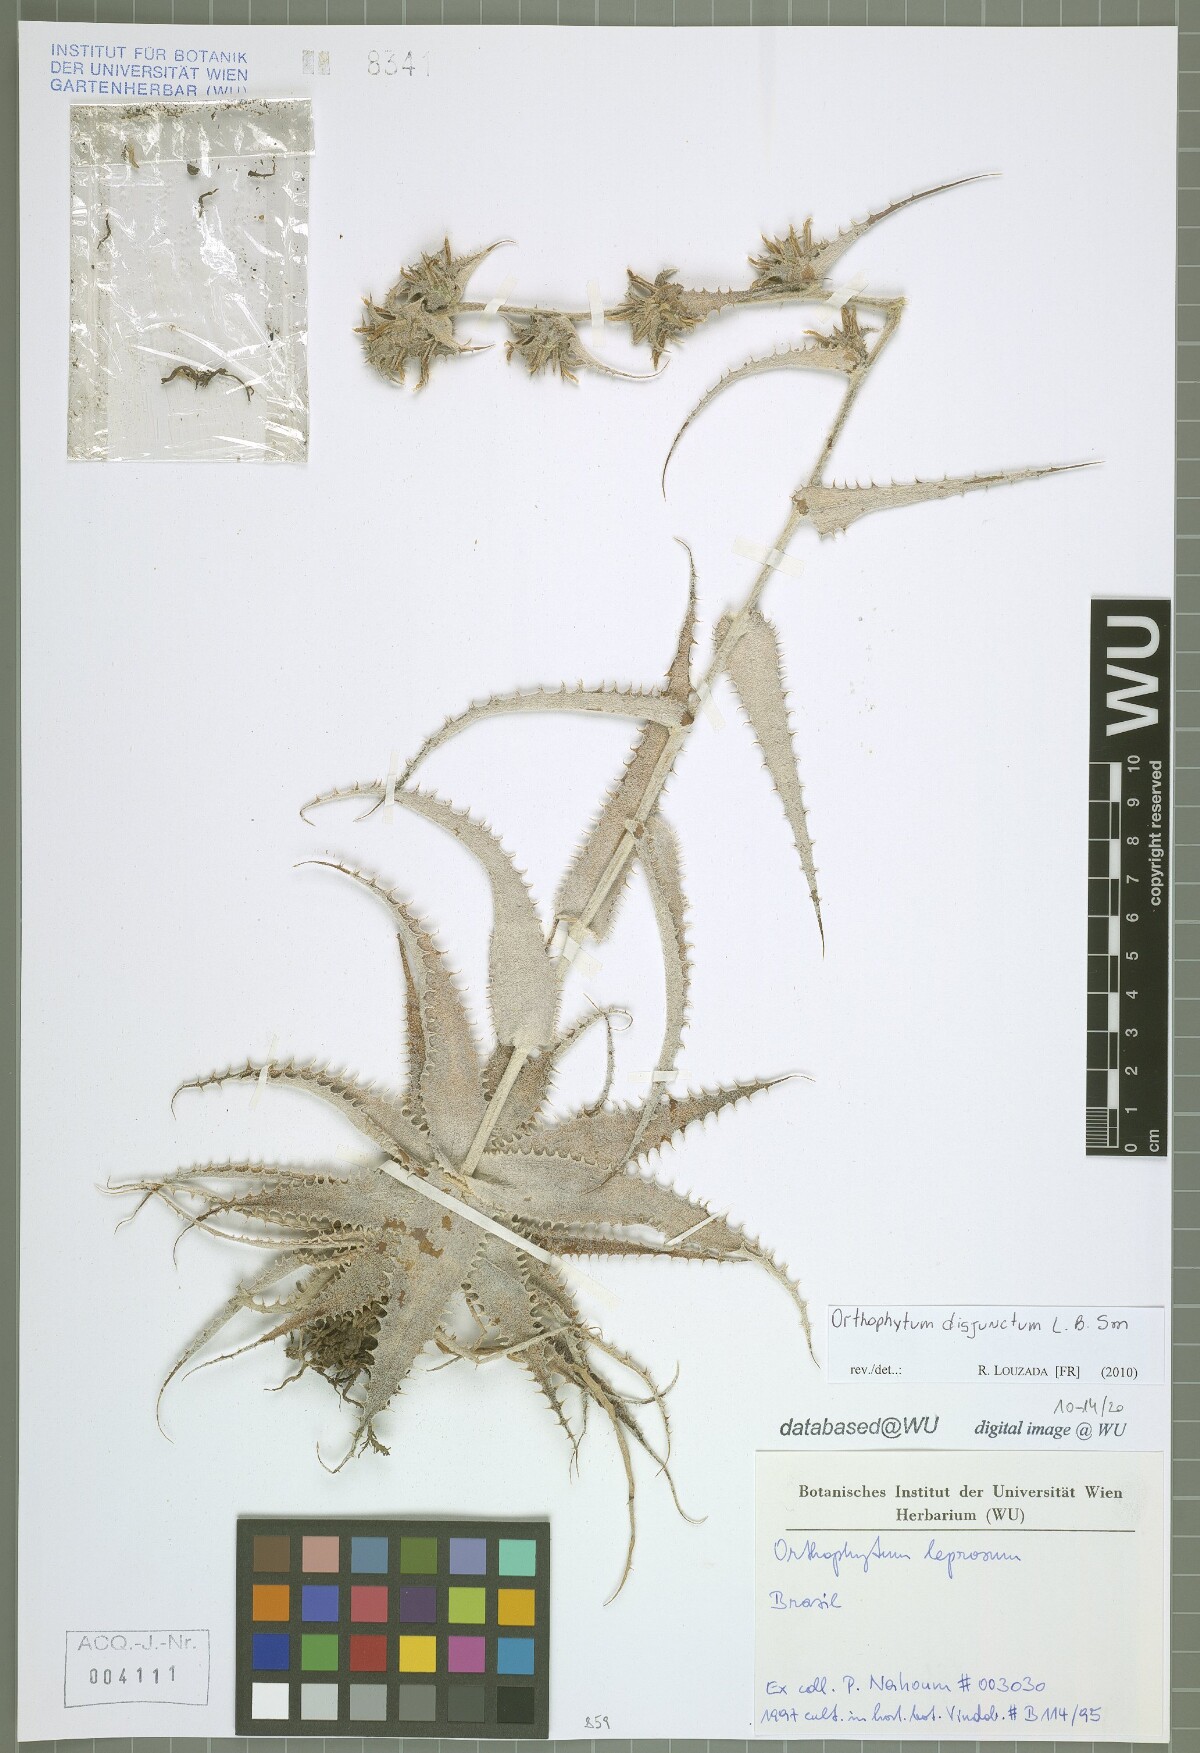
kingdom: Plantae
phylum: Tracheophyta
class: Liliopsida
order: Poales
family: Bromeliaceae
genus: Orthophytum
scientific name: Orthophytum disjunctum
